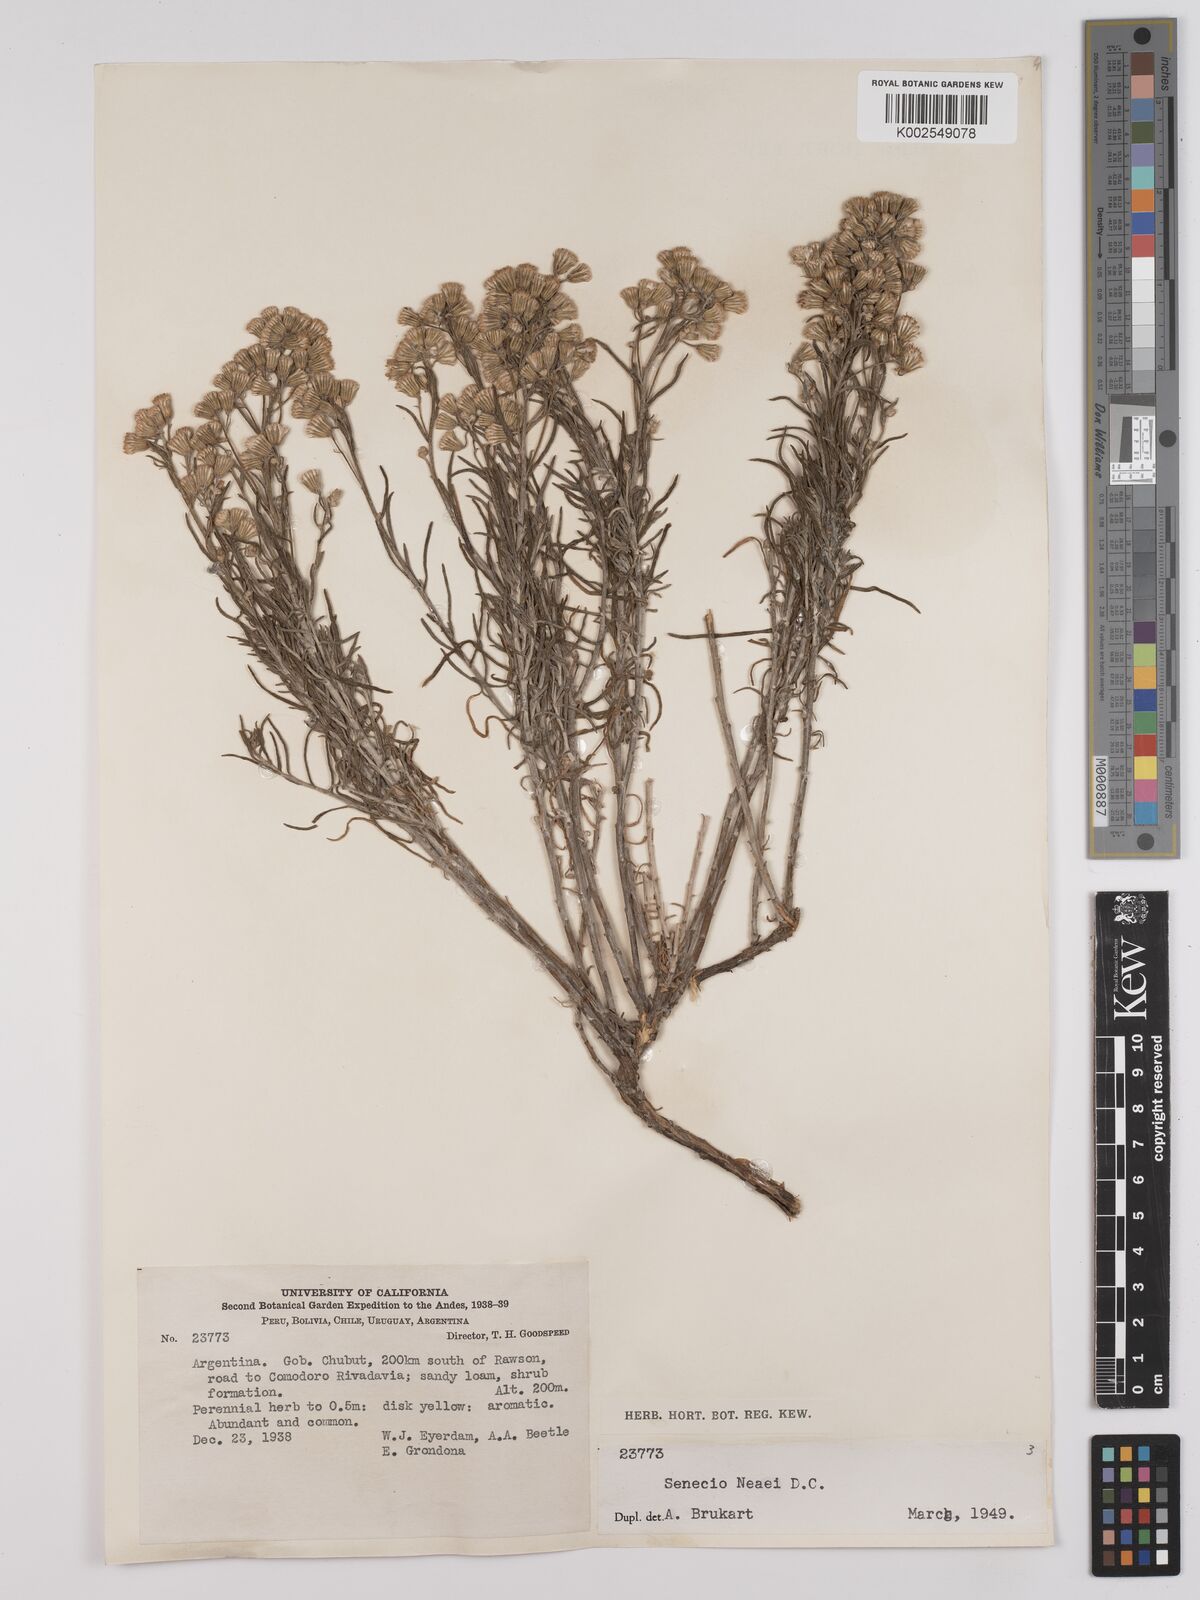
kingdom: Plantae
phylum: Tracheophyta
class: Magnoliopsida
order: Asterales
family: Asteraceae
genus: Senecio
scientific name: Senecio neaei
